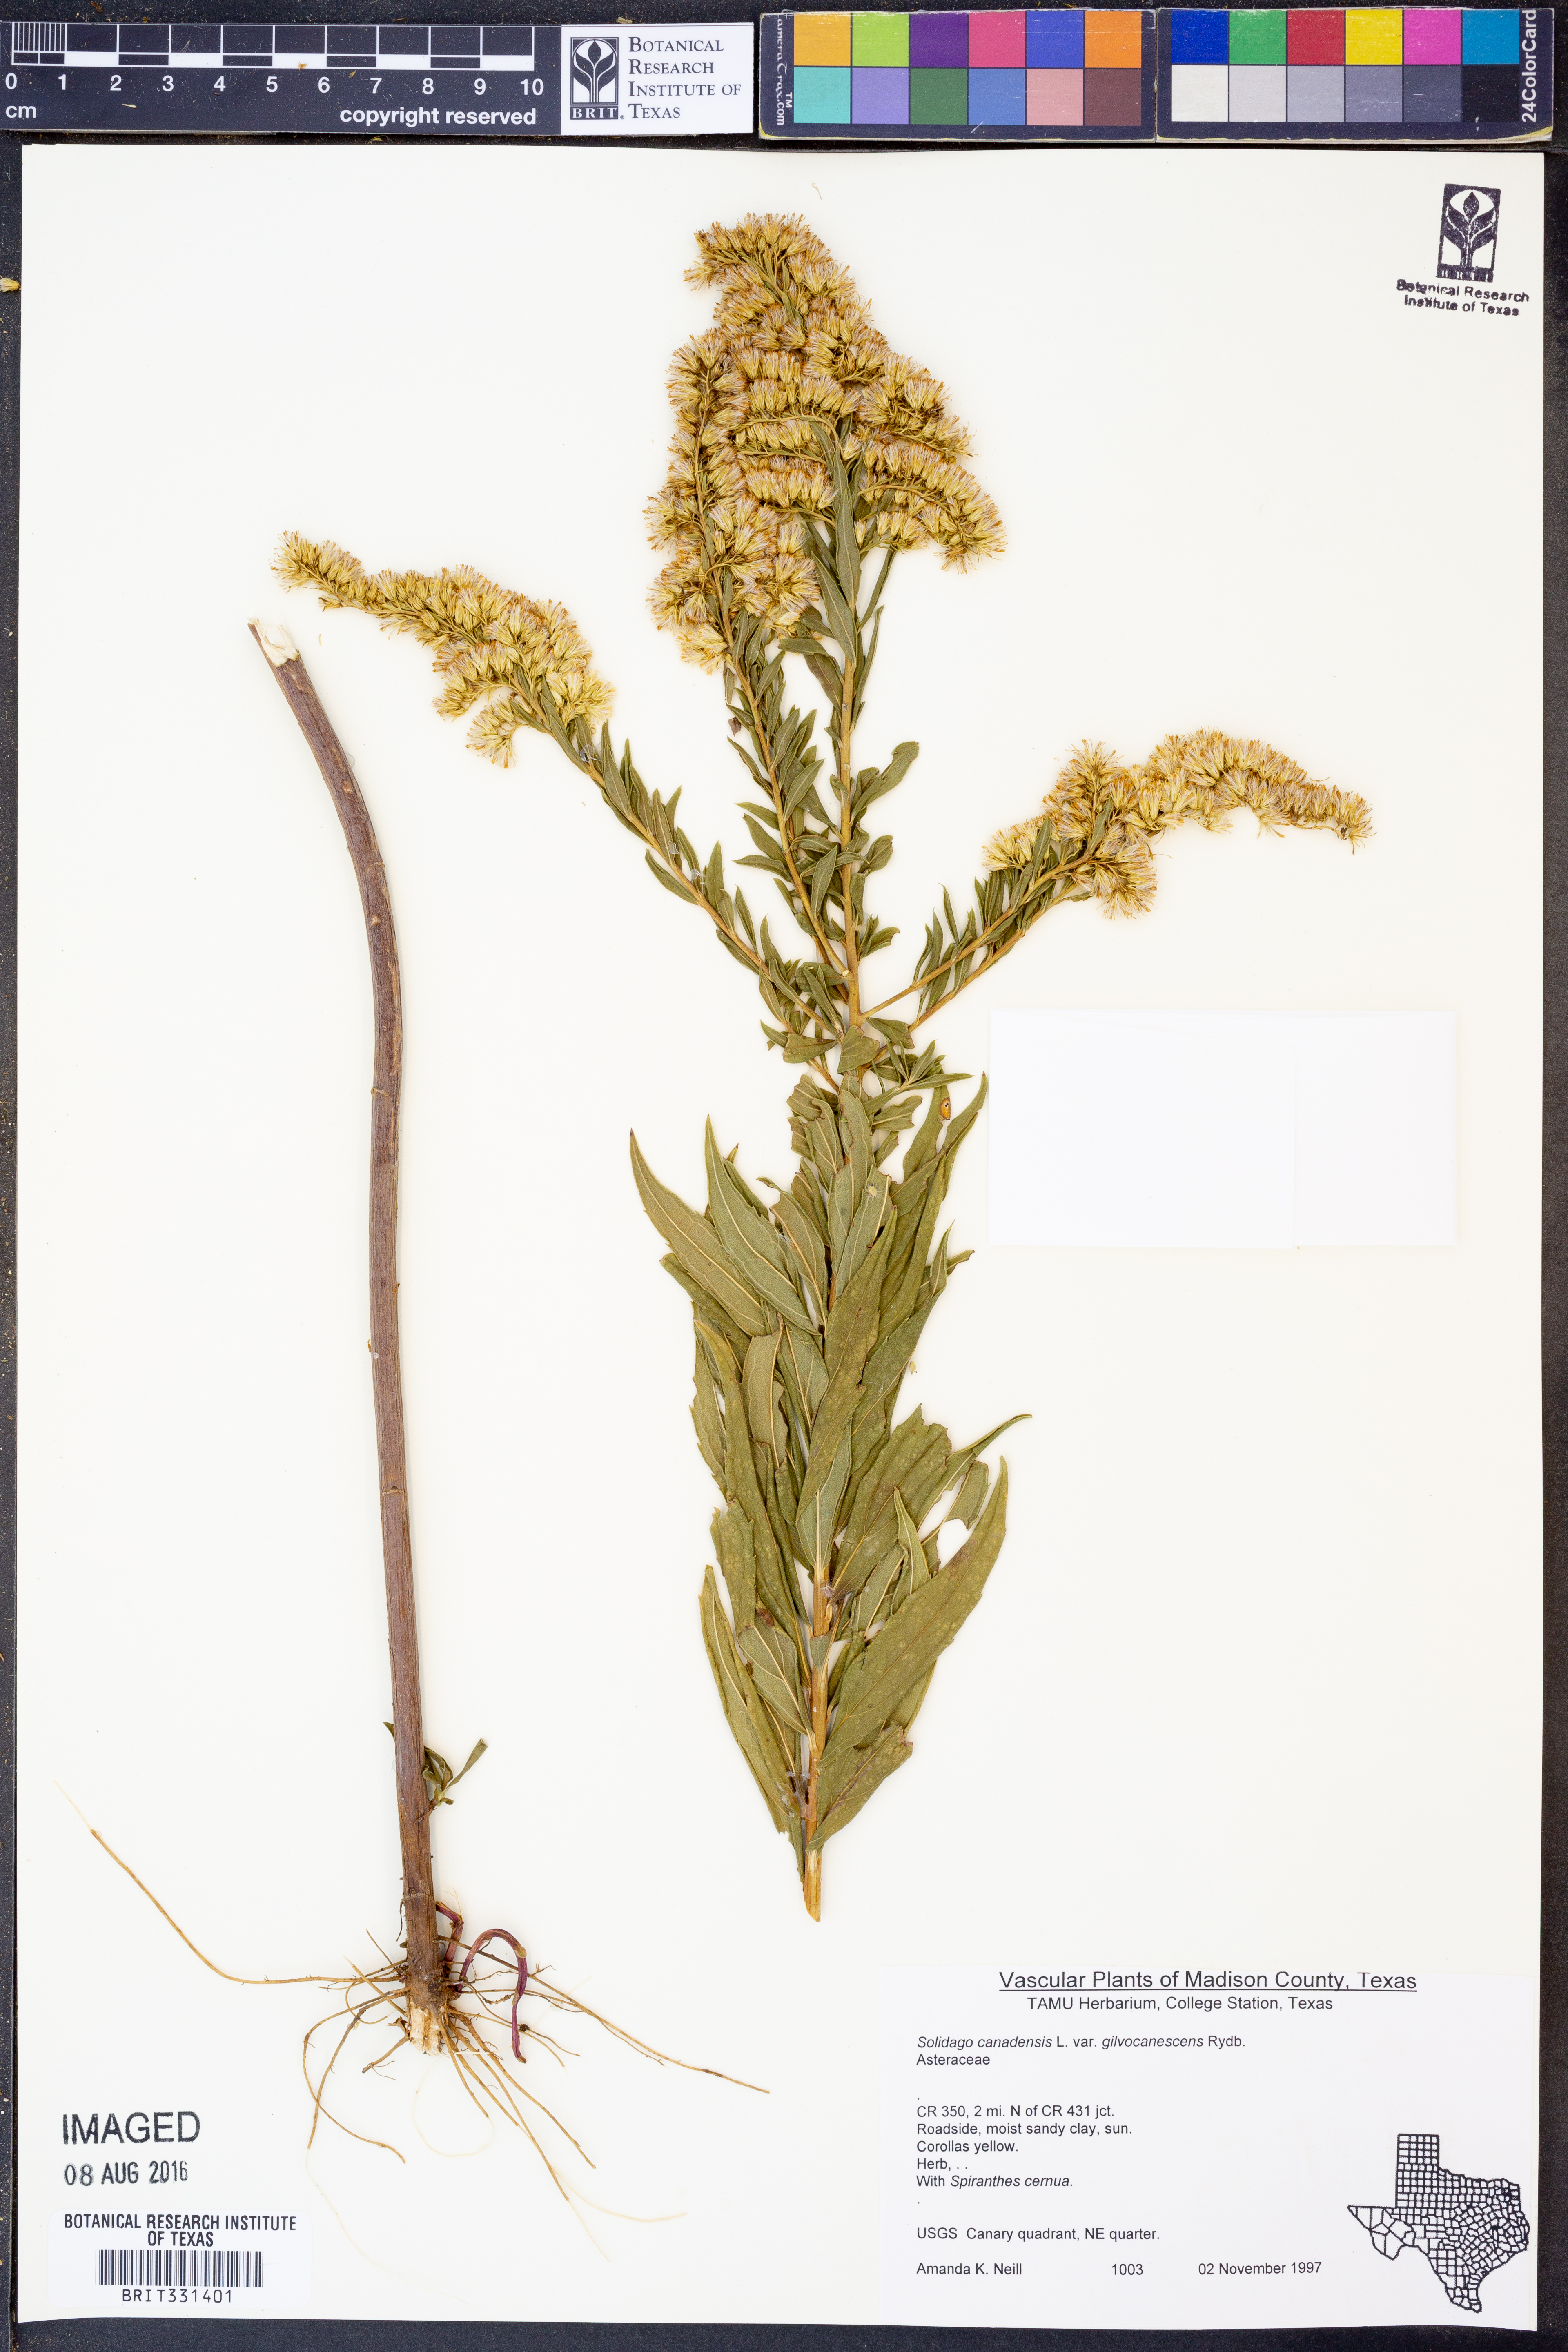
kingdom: Plantae
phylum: Tracheophyta
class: Magnoliopsida
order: Asterales
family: Asteraceae
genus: Solidago
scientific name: Solidago altissima
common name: Late goldenrod
